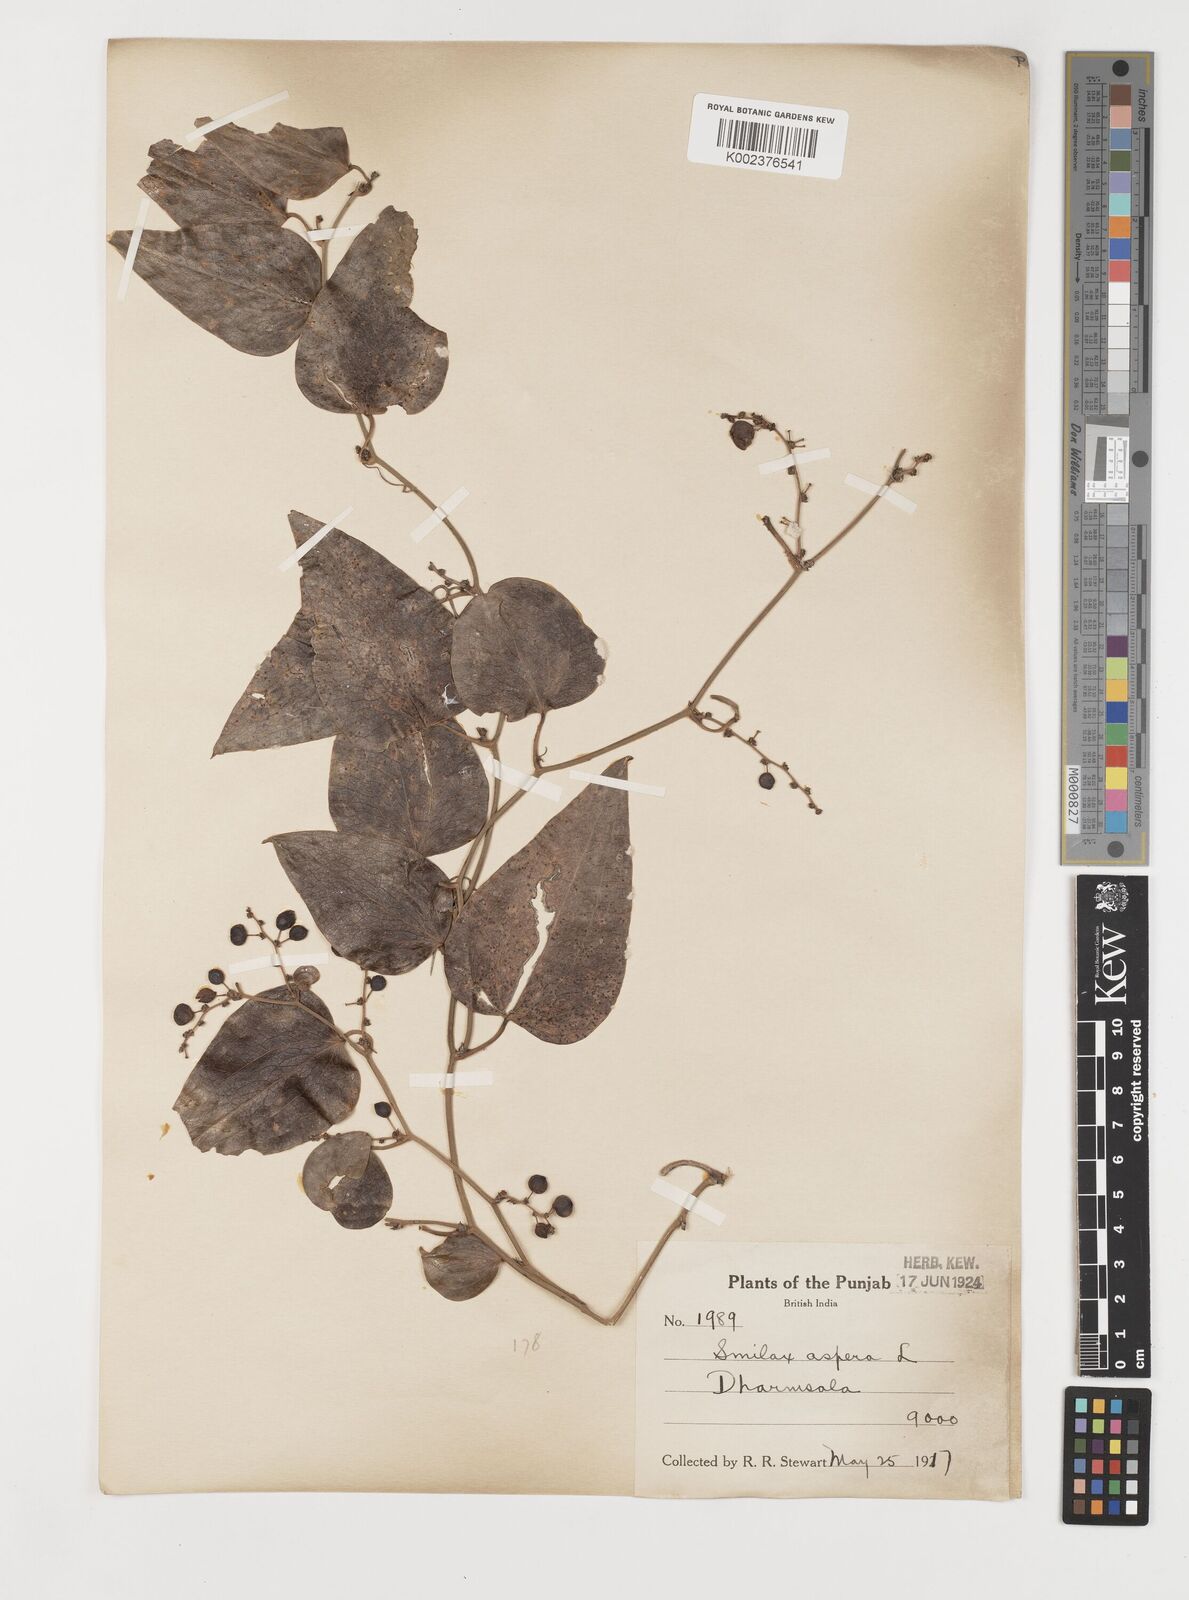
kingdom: Plantae
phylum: Tracheophyta
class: Liliopsida
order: Liliales
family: Smilacaceae
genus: Smilax
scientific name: Smilax aspera
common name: Common smilax
